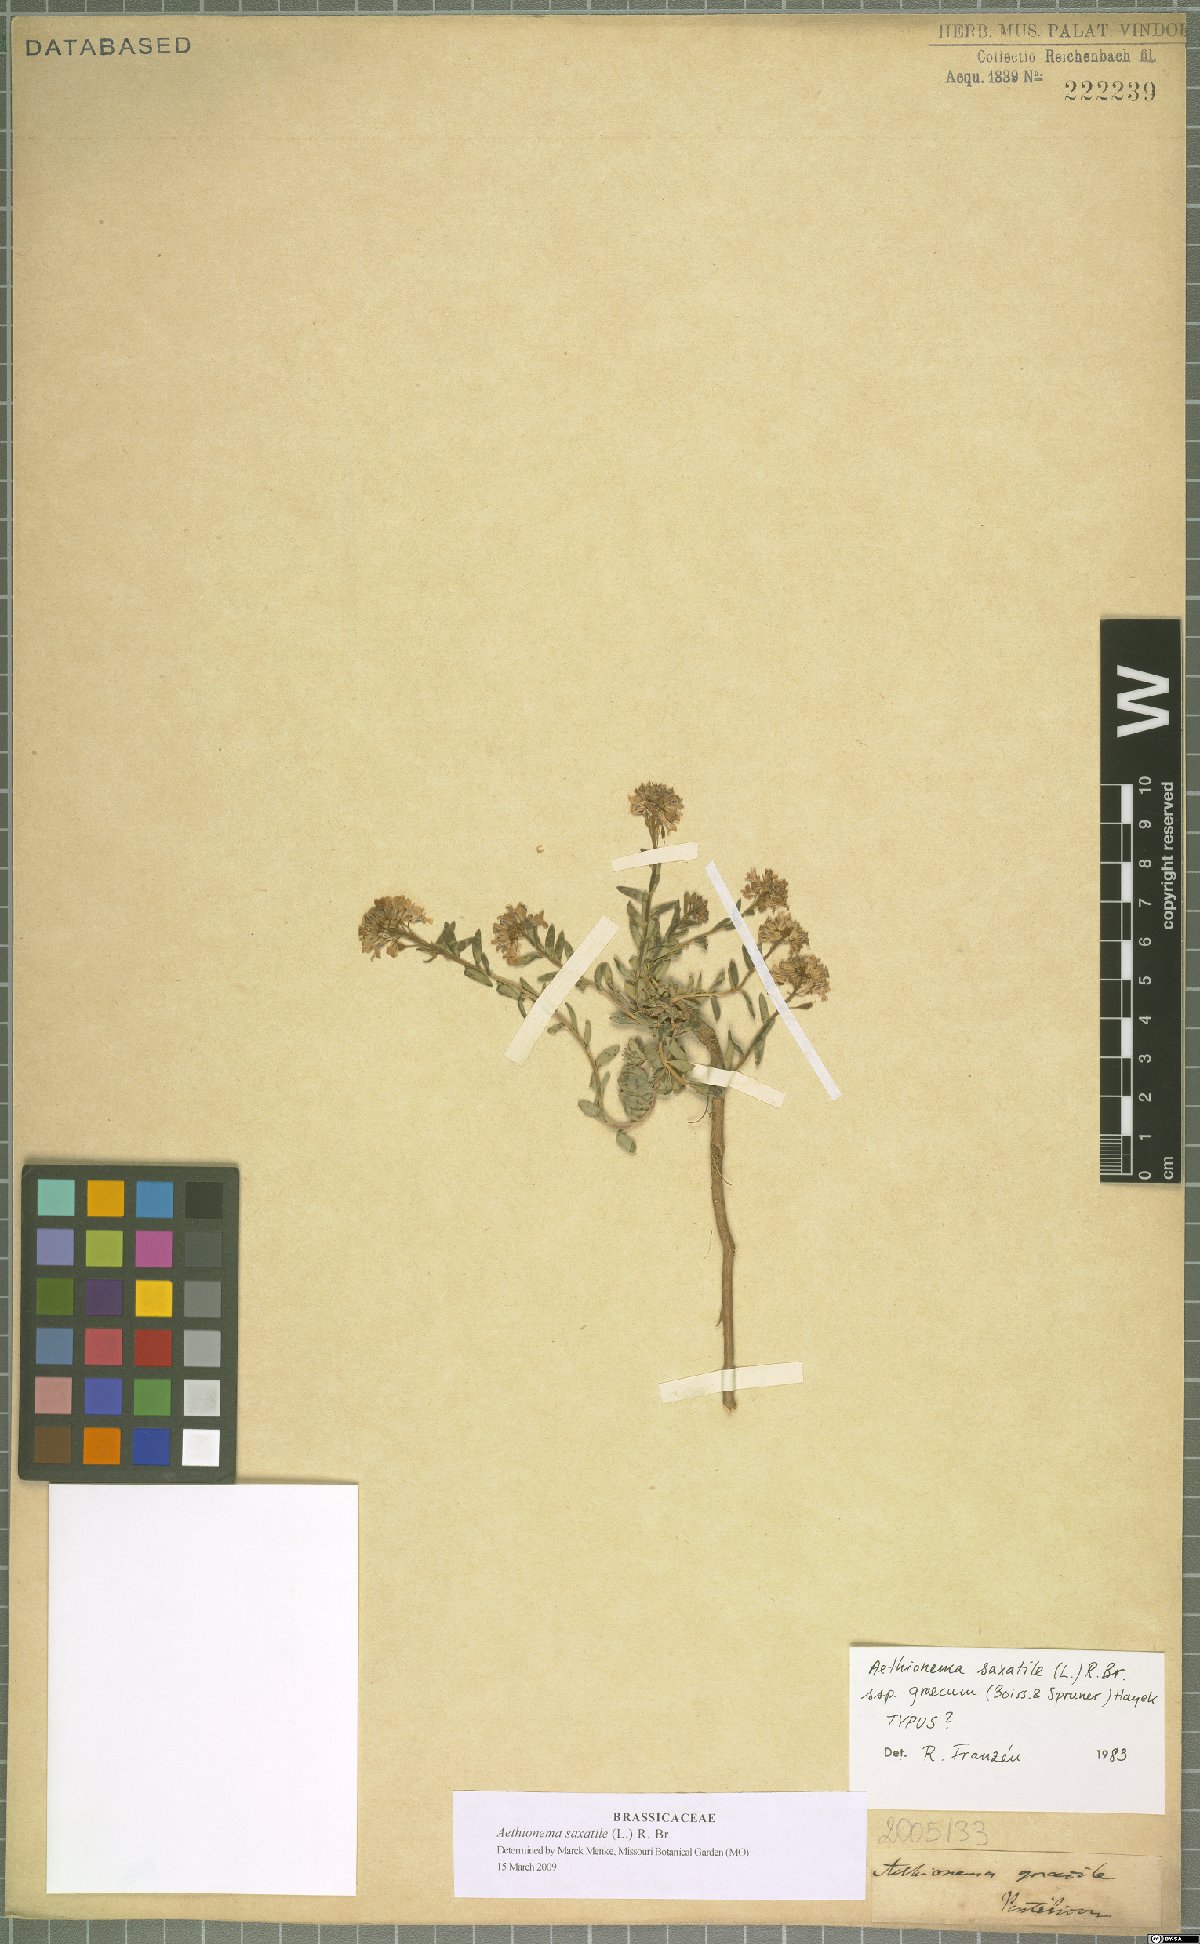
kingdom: Plantae
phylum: Tracheophyta
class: Magnoliopsida
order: Brassicales
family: Brassicaceae
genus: Aethionema
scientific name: Aethionema saxatile
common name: Burnt candytuft
